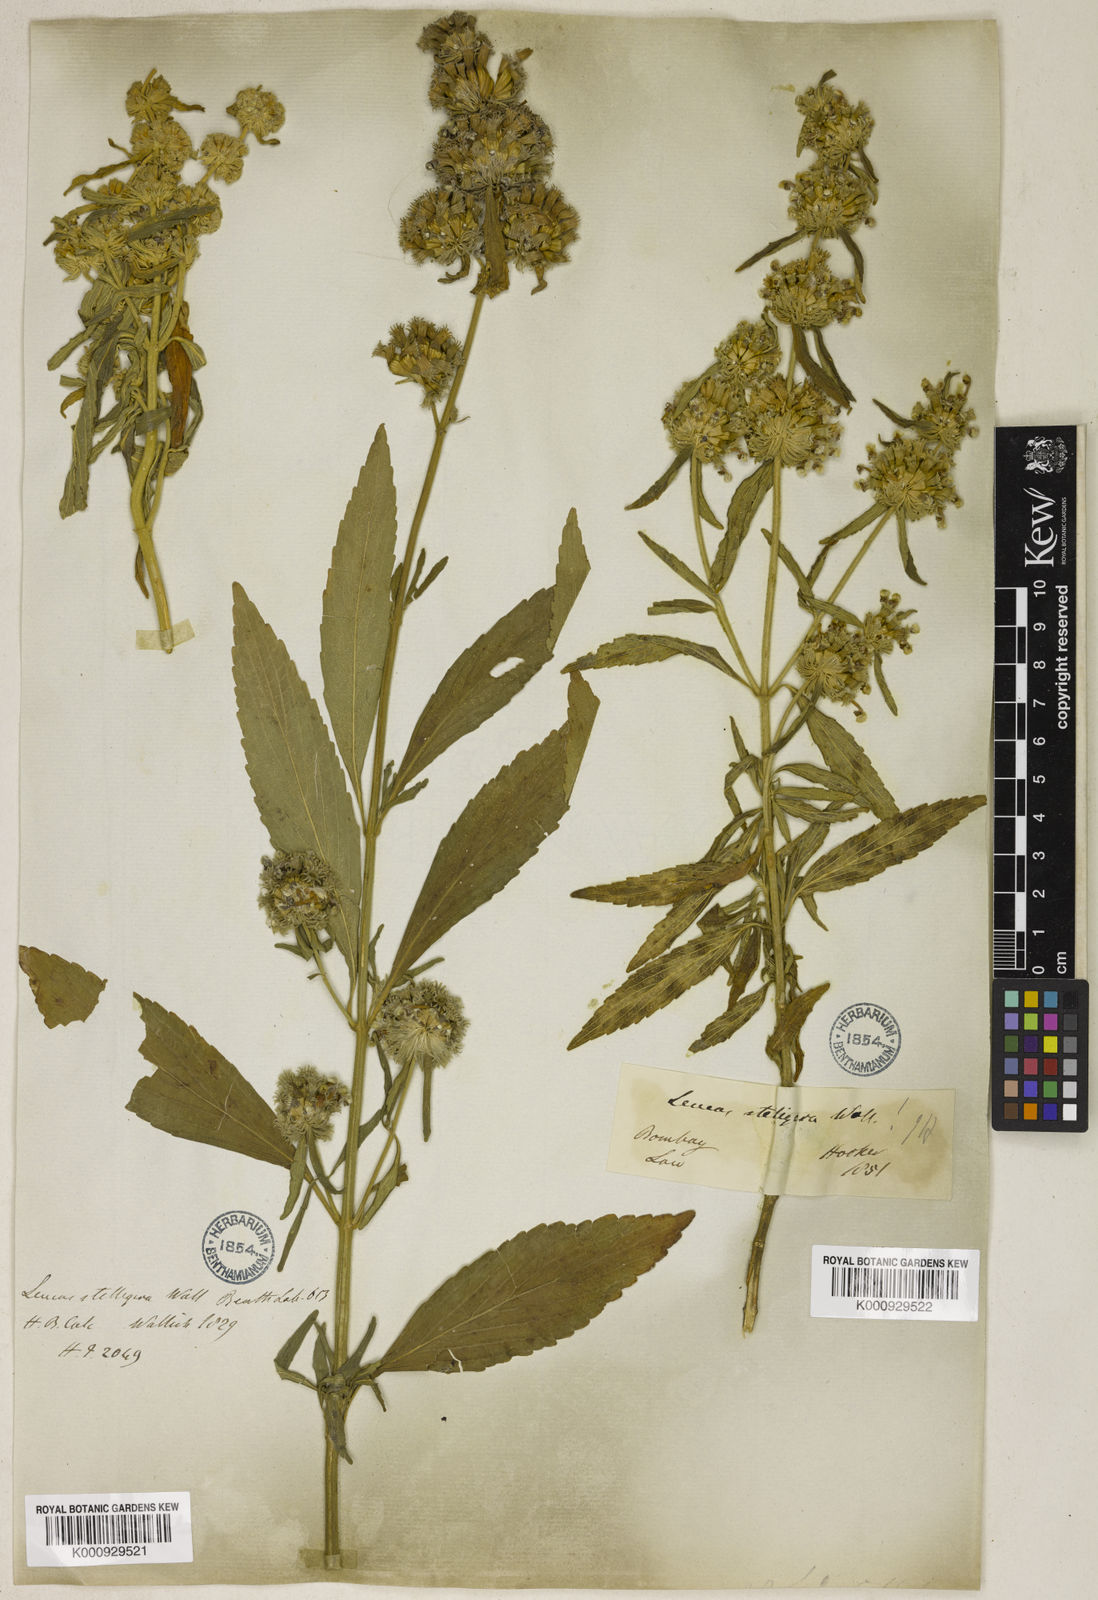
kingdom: Plantae
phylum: Tracheophyta
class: Magnoliopsida
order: Lamiales
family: Lamiaceae
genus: Leucas
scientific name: Leucas stelligera
